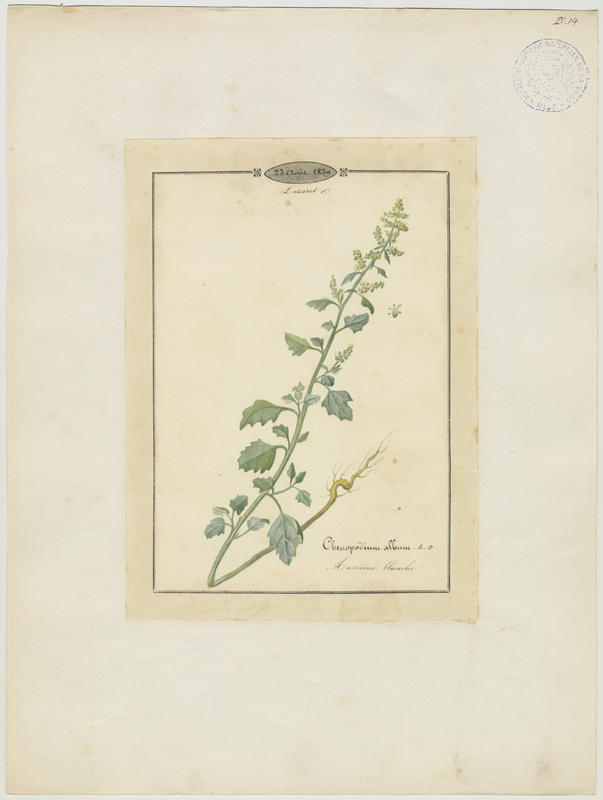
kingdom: Plantae
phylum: Tracheophyta
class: Magnoliopsida
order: Caryophyllales
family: Amaranthaceae
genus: Chenopodium
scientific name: Chenopodium album
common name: Fat-hen
